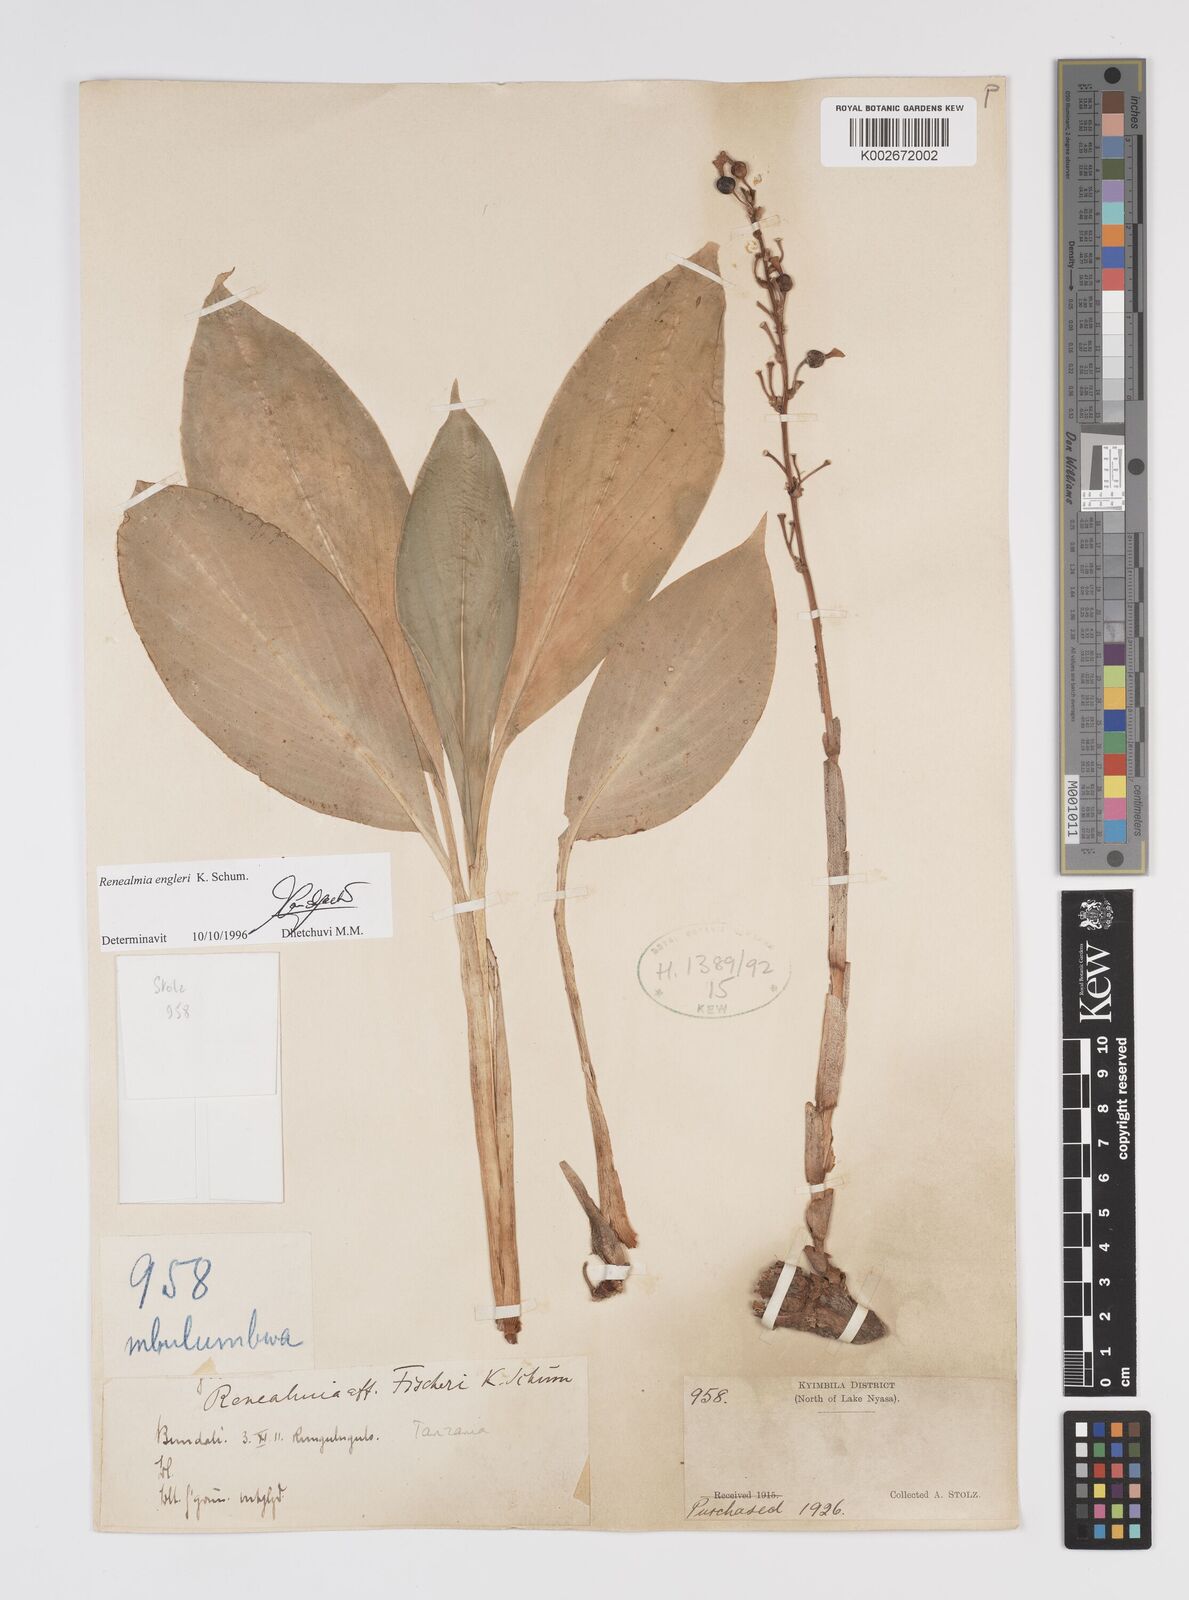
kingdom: Plantae
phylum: Tracheophyta
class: Liliopsida
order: Zingiberales
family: Zingiberaceae
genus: Renealmia
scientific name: Renealmia engleri
